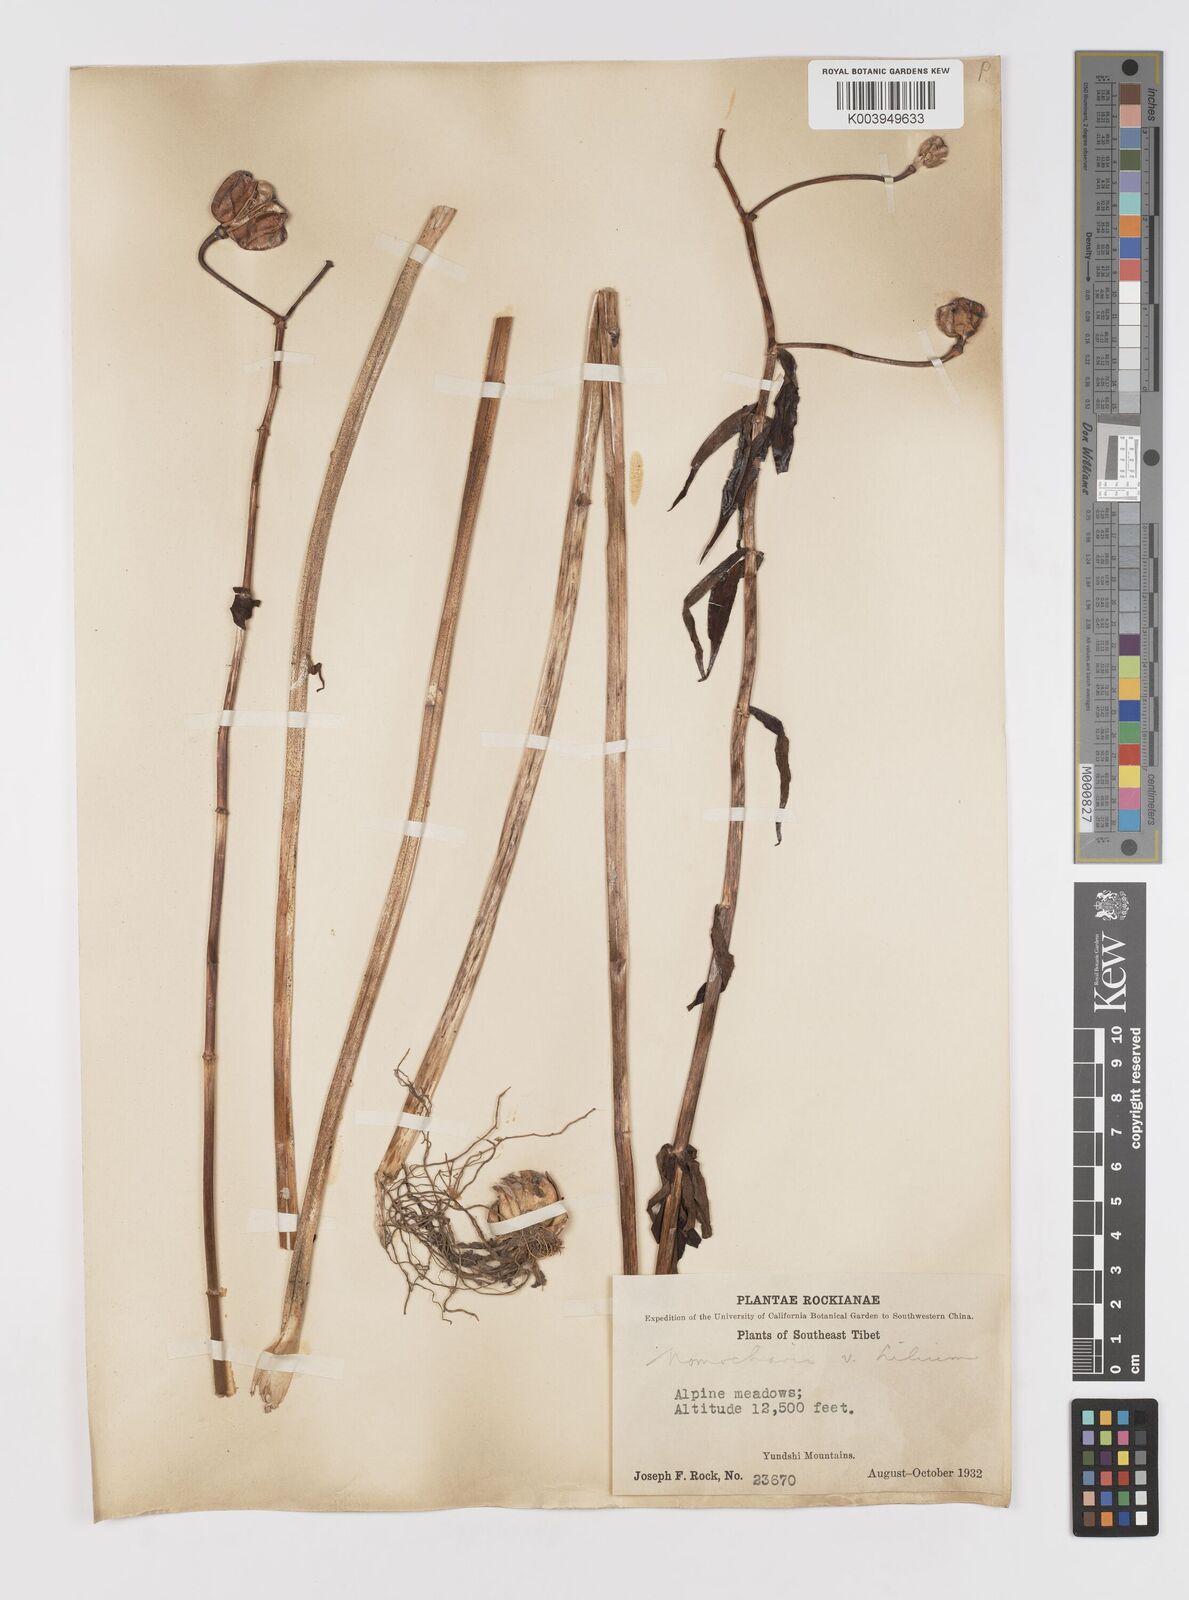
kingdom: Plantae
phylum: Tracheophyta
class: Liliopsida
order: Liliales
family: Liliaceae
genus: Lilium
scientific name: Lilium
